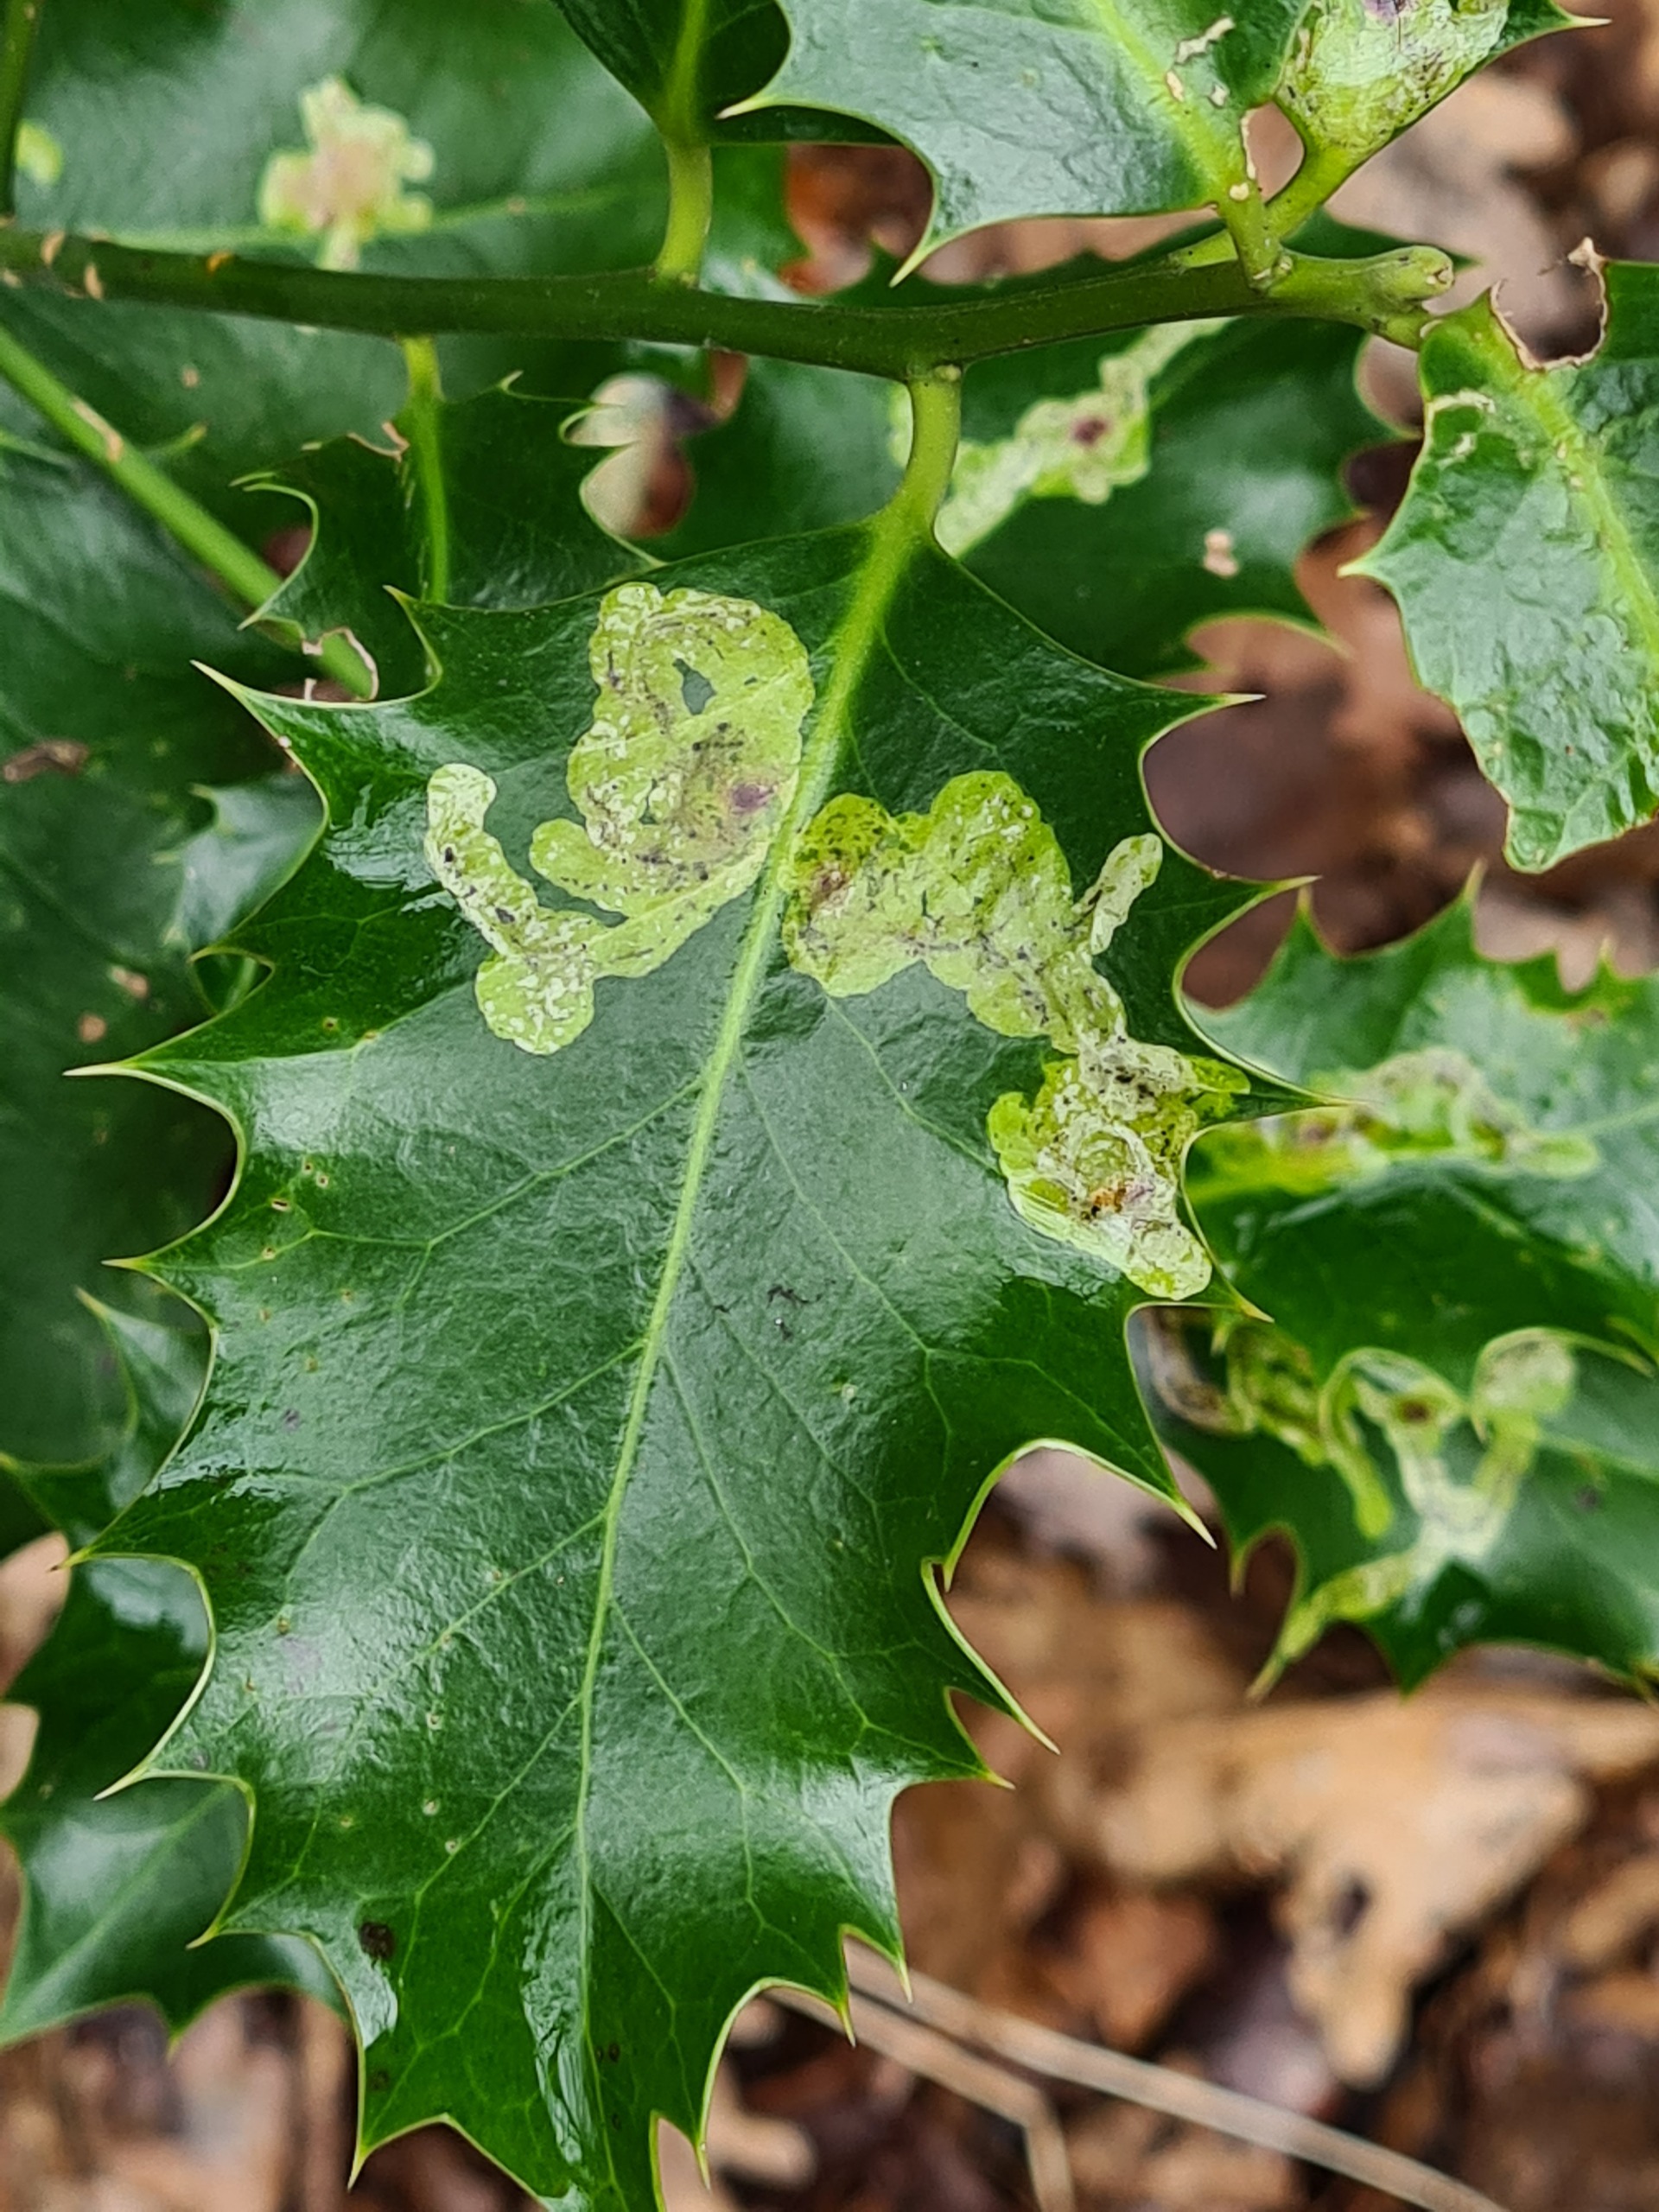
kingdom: Animalia
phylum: Arthropoda
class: Insecta
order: Diptera
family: Agromyzidae
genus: Phytomyza
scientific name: Phytomyza ilicis
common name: Kristtornminérflue
